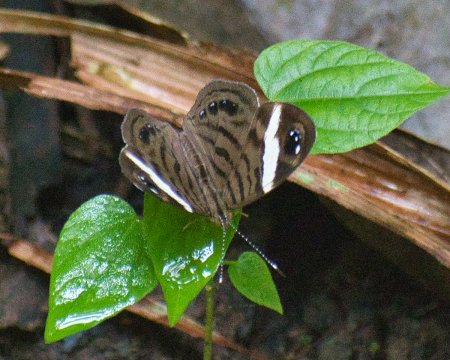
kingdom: Animalia
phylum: Arthropoda
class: Insecta
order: Lepidoptera
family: Nymphalidae
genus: Ectima
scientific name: Ectima erycinoides
